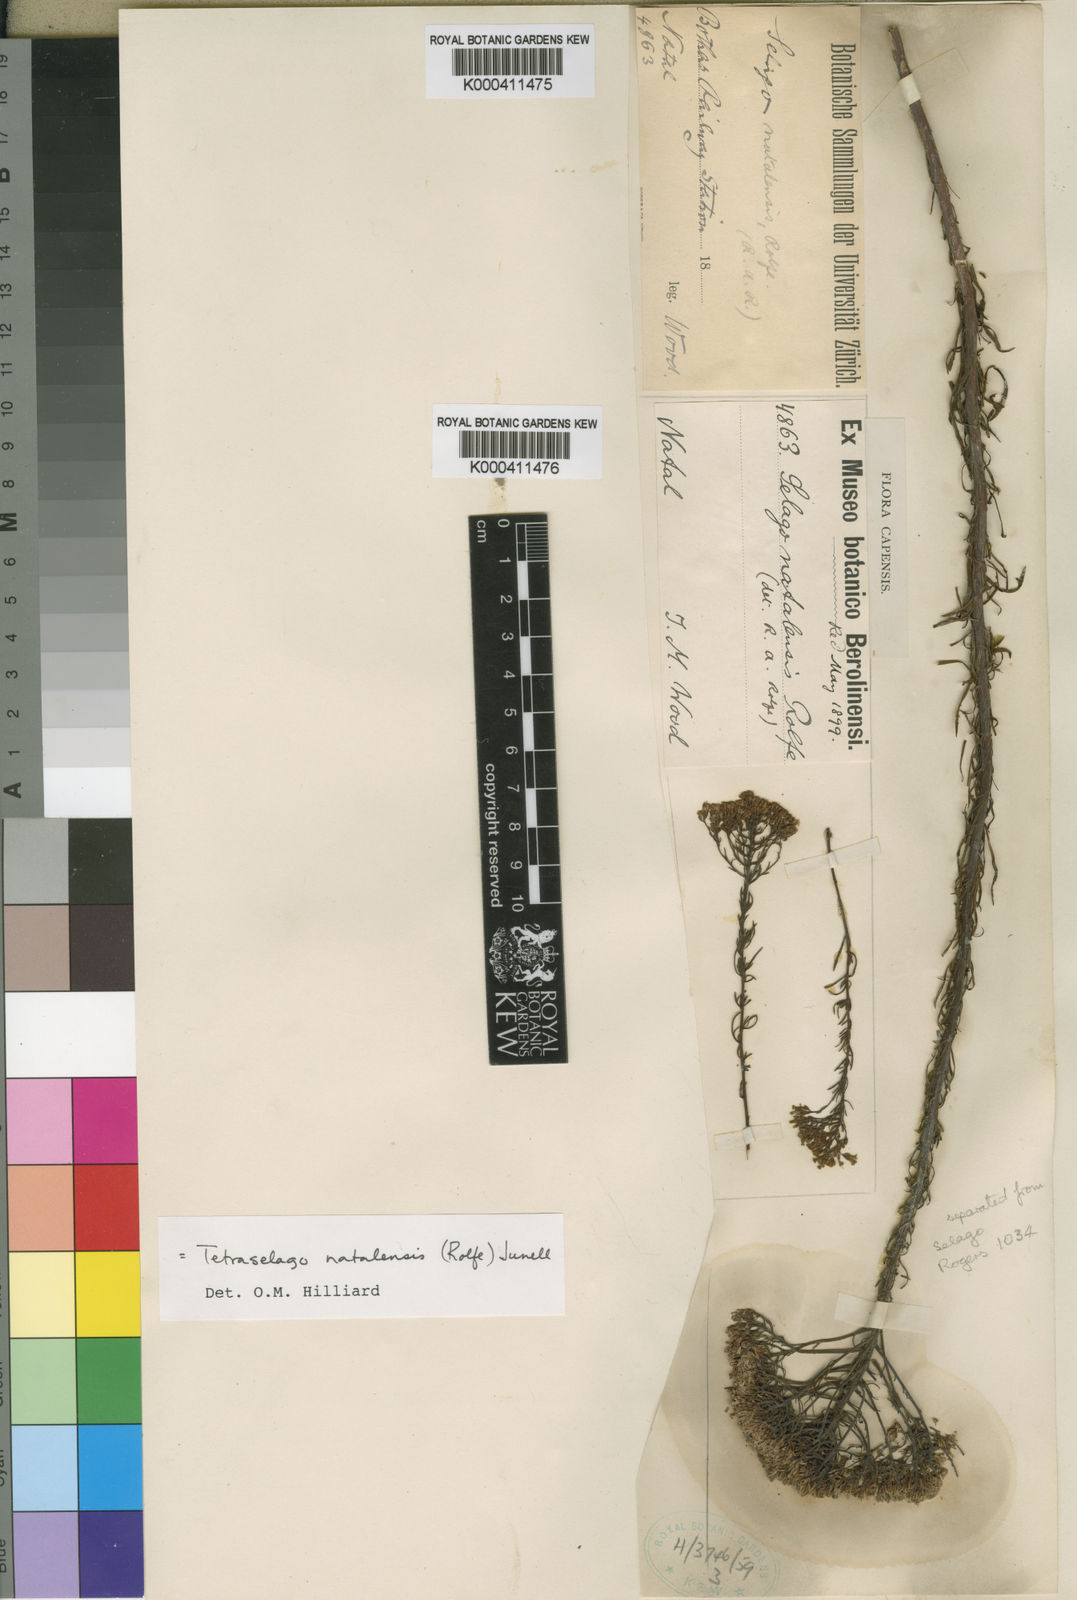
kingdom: Plantae
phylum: Tracheophyta
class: Magnoliopsida
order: Lamiales
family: Scrophulariaceae
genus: Tetraselago
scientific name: Tetraselago natalensis
